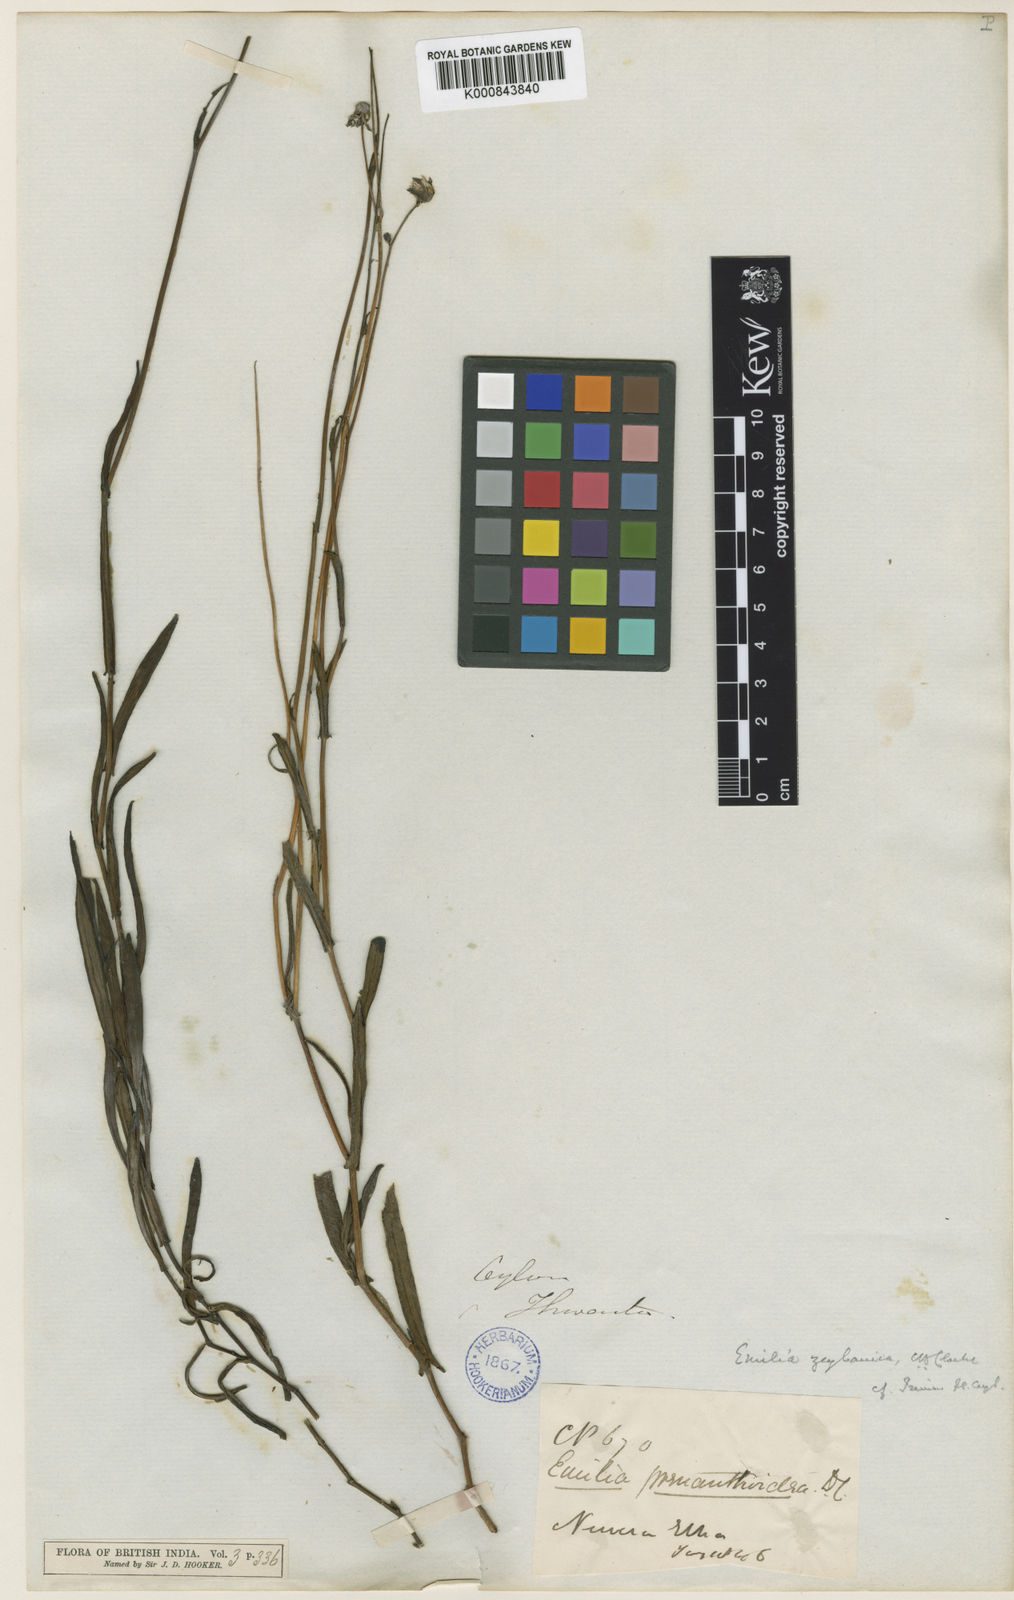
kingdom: Plantae
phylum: Tracheophyta
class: Magnoliopsida
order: Asterales
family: Asteraceae
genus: Emilia
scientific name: Emilia zeylanica
